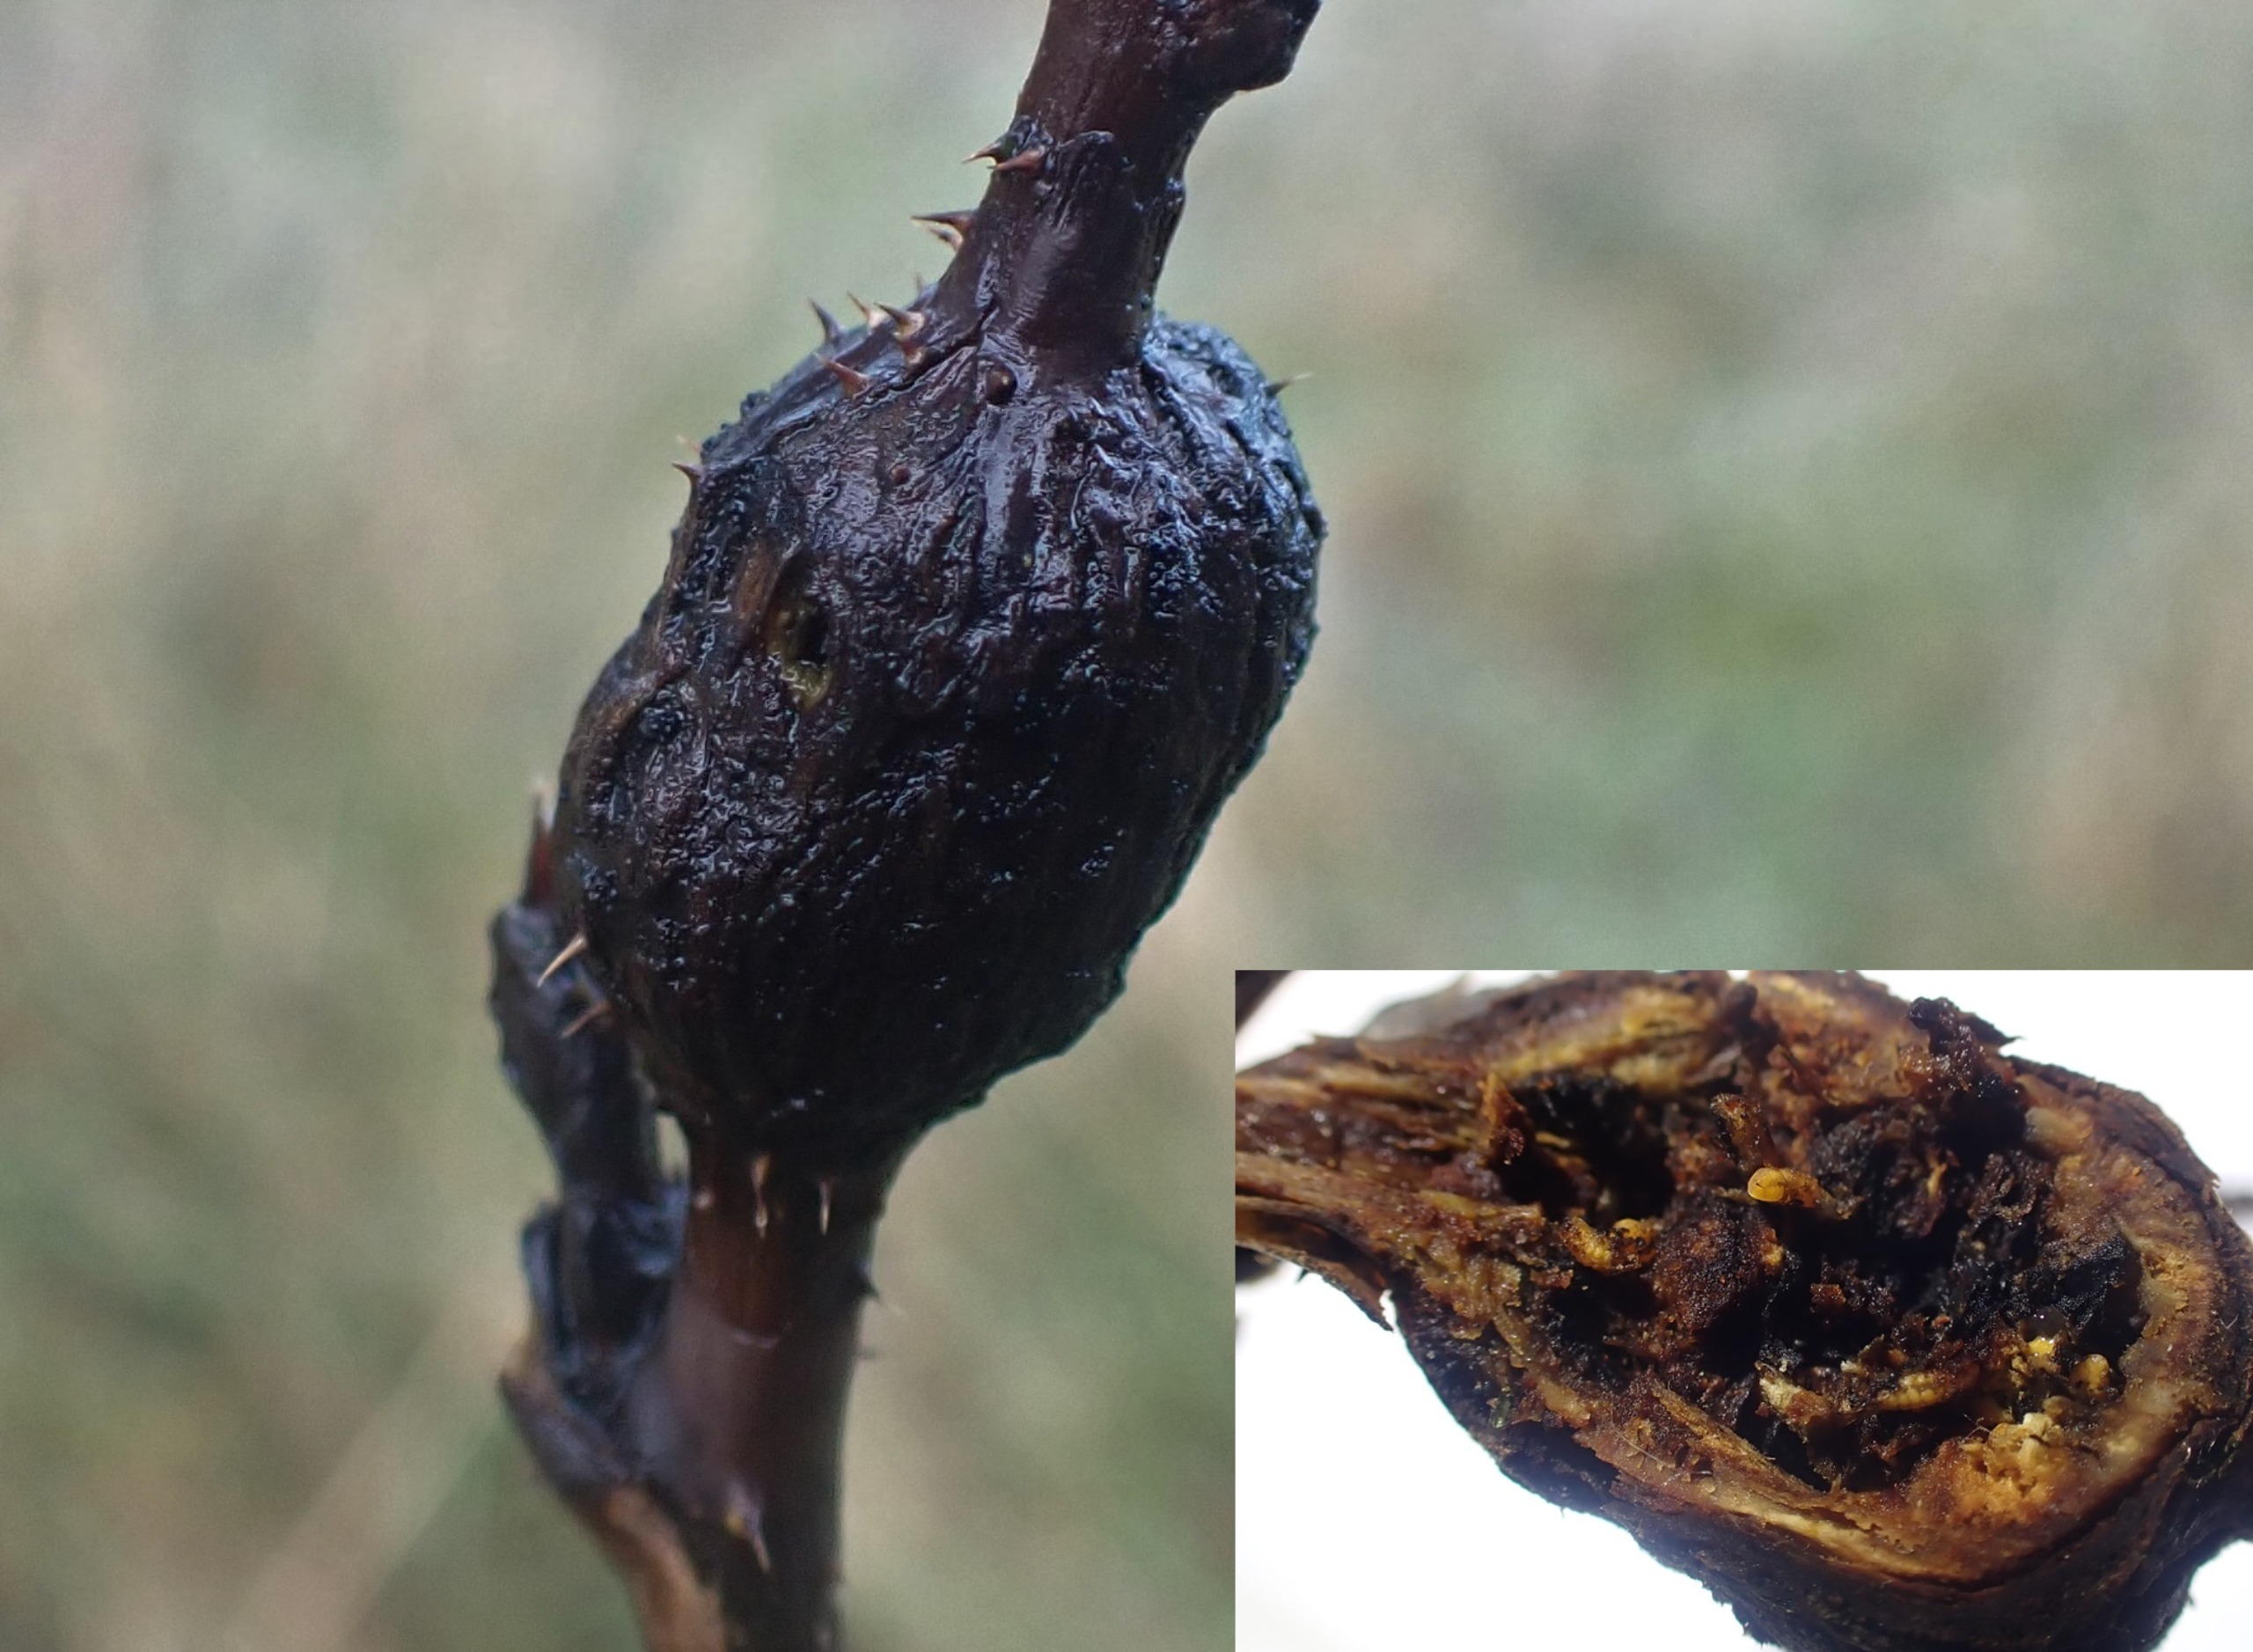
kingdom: Animalia
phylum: Arthropoda
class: Insecta
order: Diptera
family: Cecidomyiidae
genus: Lasioptera
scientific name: Lasioptera rubi
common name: Hindbærstængelgalmyg
